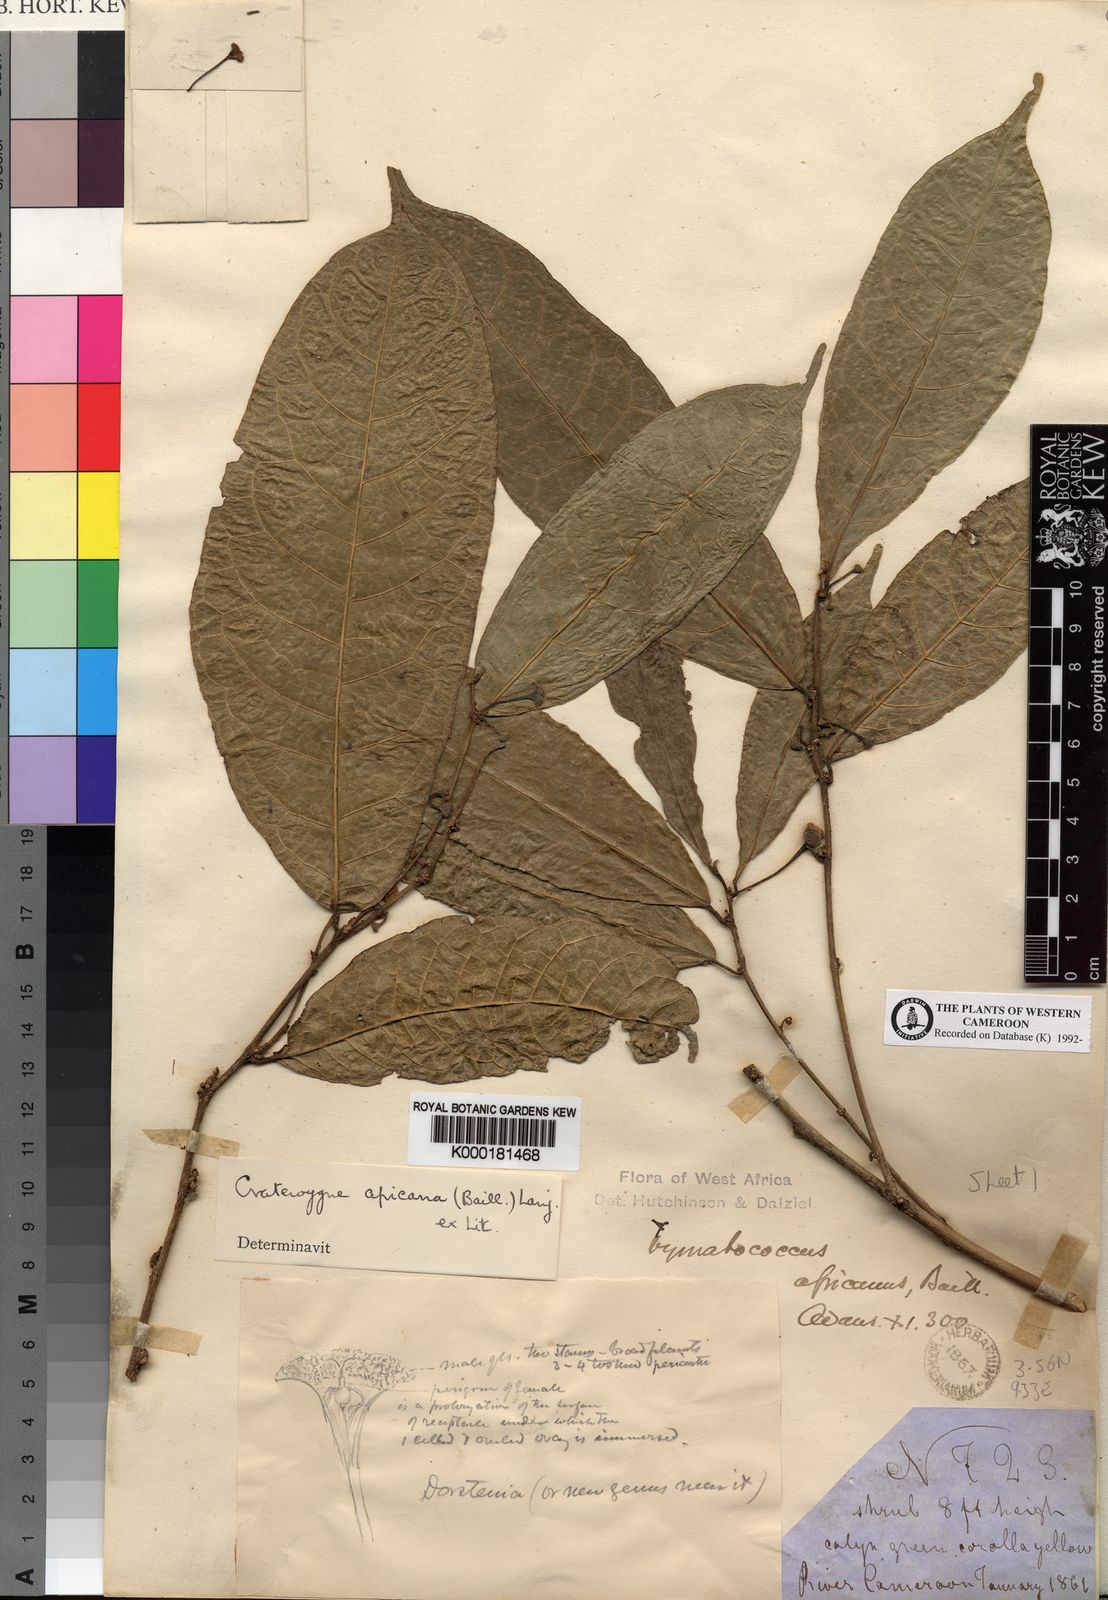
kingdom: Plantae
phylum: Tracheophyta
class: Magnoliopsida
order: Rosales
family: Moraceae
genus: Dorstenia
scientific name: Dorstenia africana
